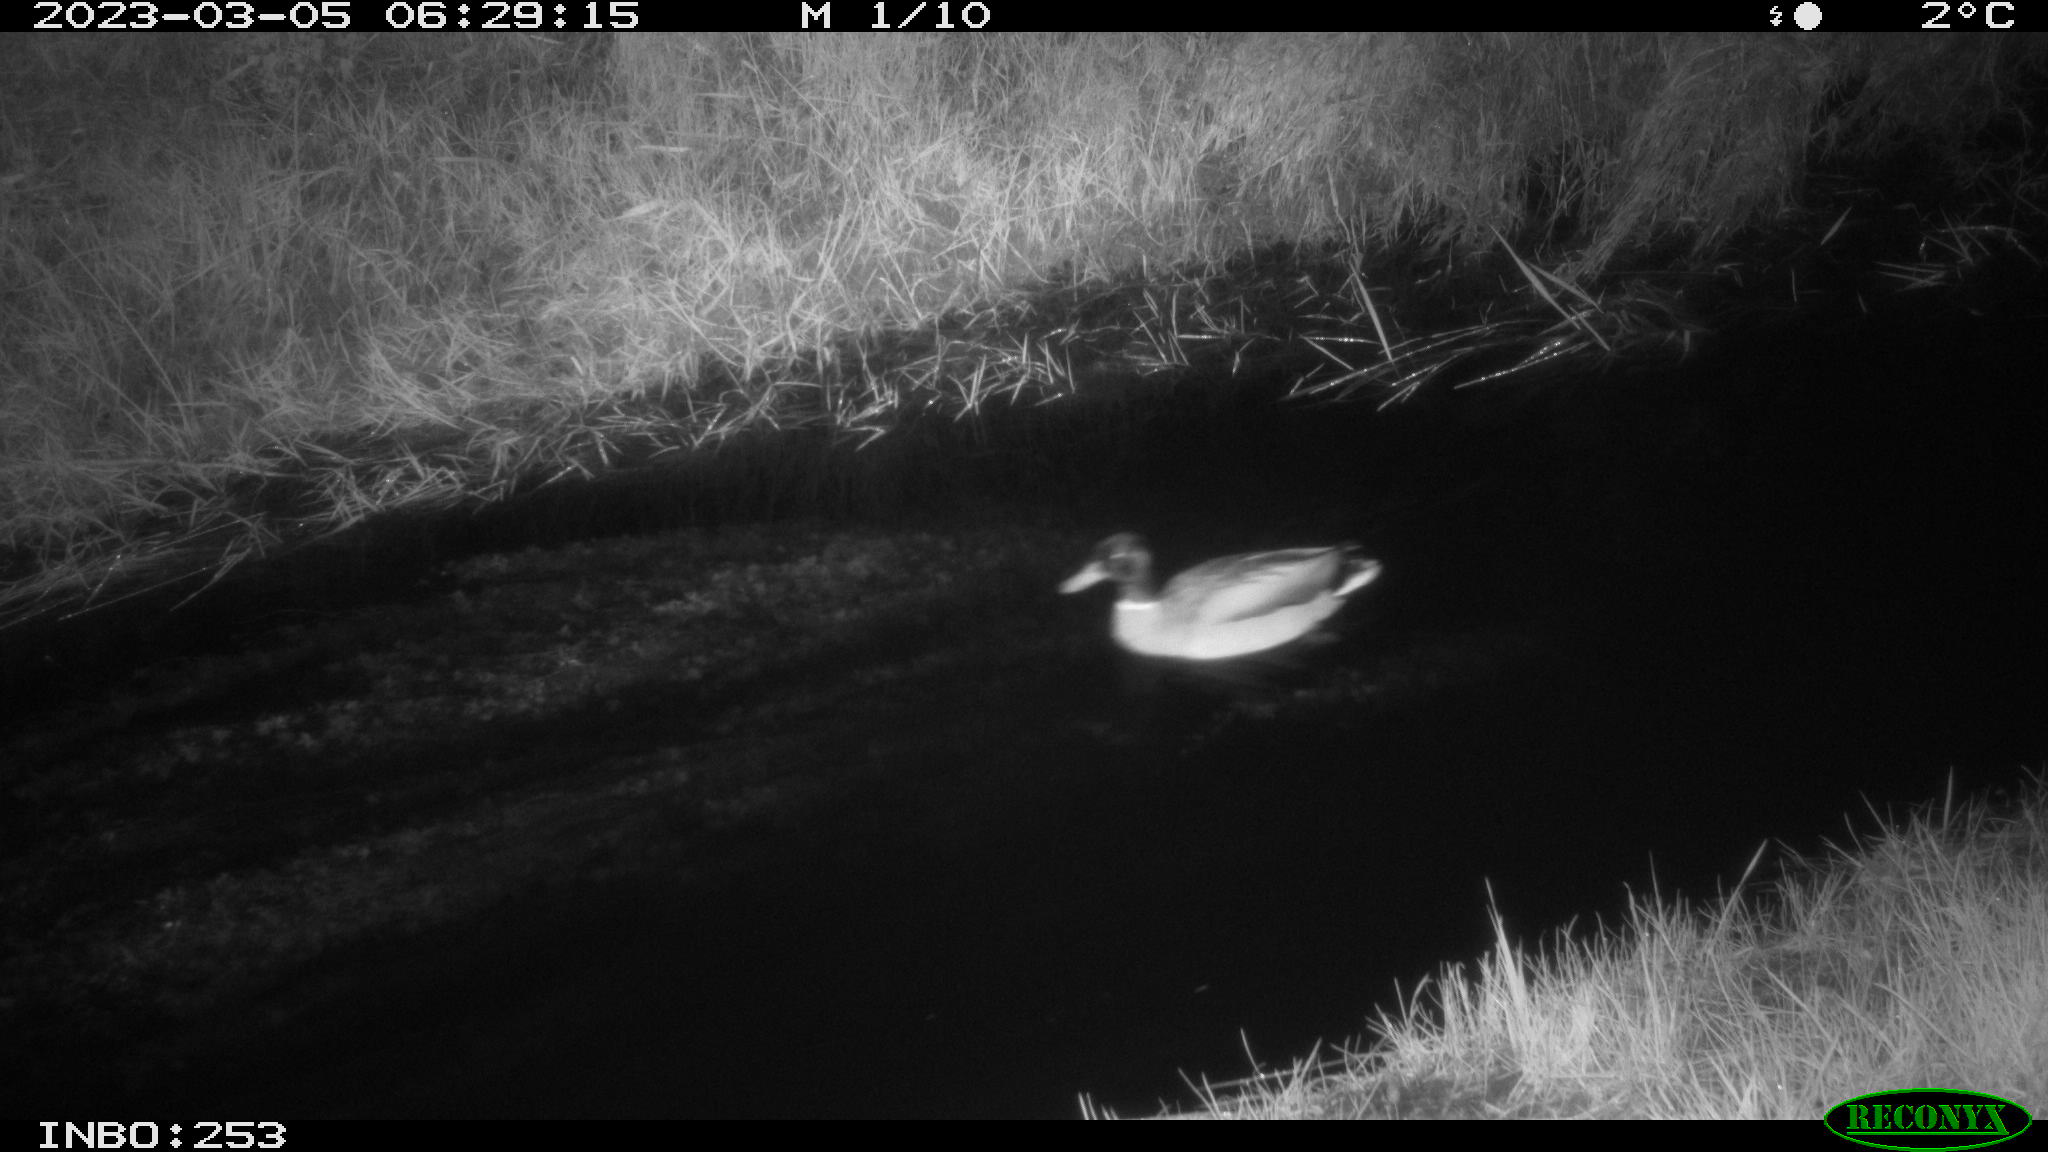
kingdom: Animalia
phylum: Chordata
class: Aves
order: Anseriformes
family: Anatidae
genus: Anas
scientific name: Anas
